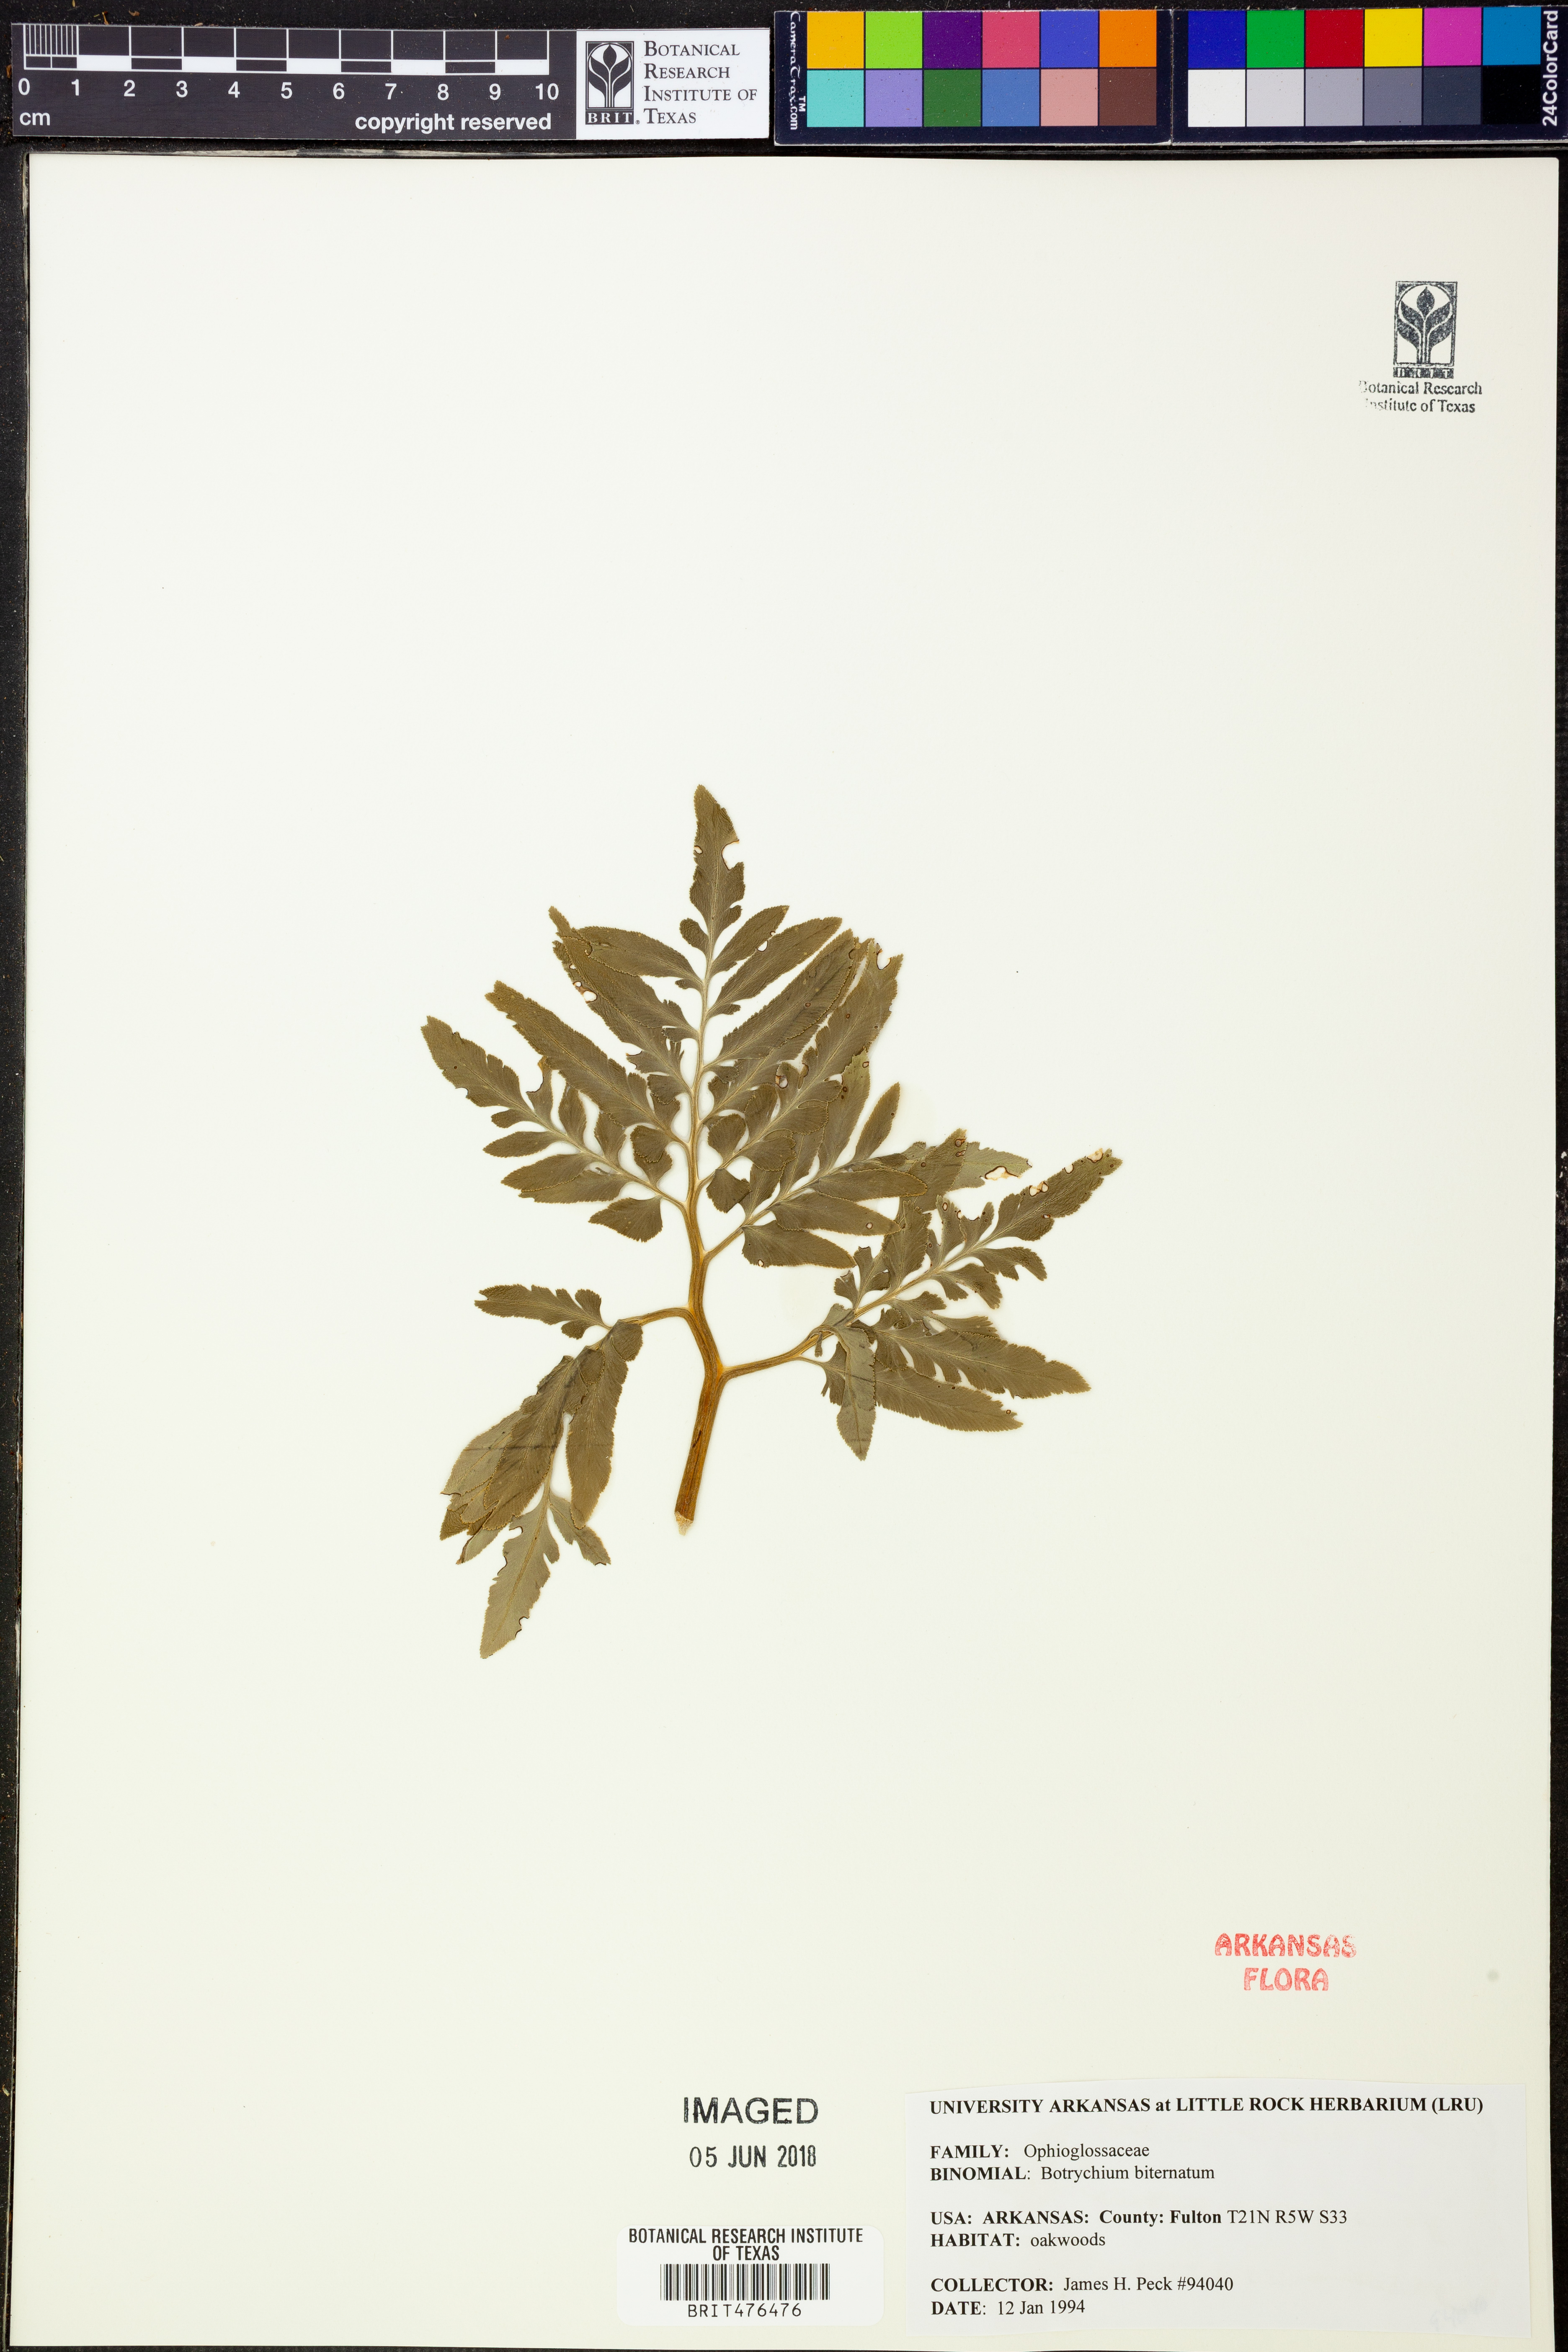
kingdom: Plantae
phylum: Tracheophyta
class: Polypodiopsida
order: Ophioglossales
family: Ophioglossaceae
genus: Sceptridium
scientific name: Sceptridium biternatum
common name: Sparse-lobed grapefern
